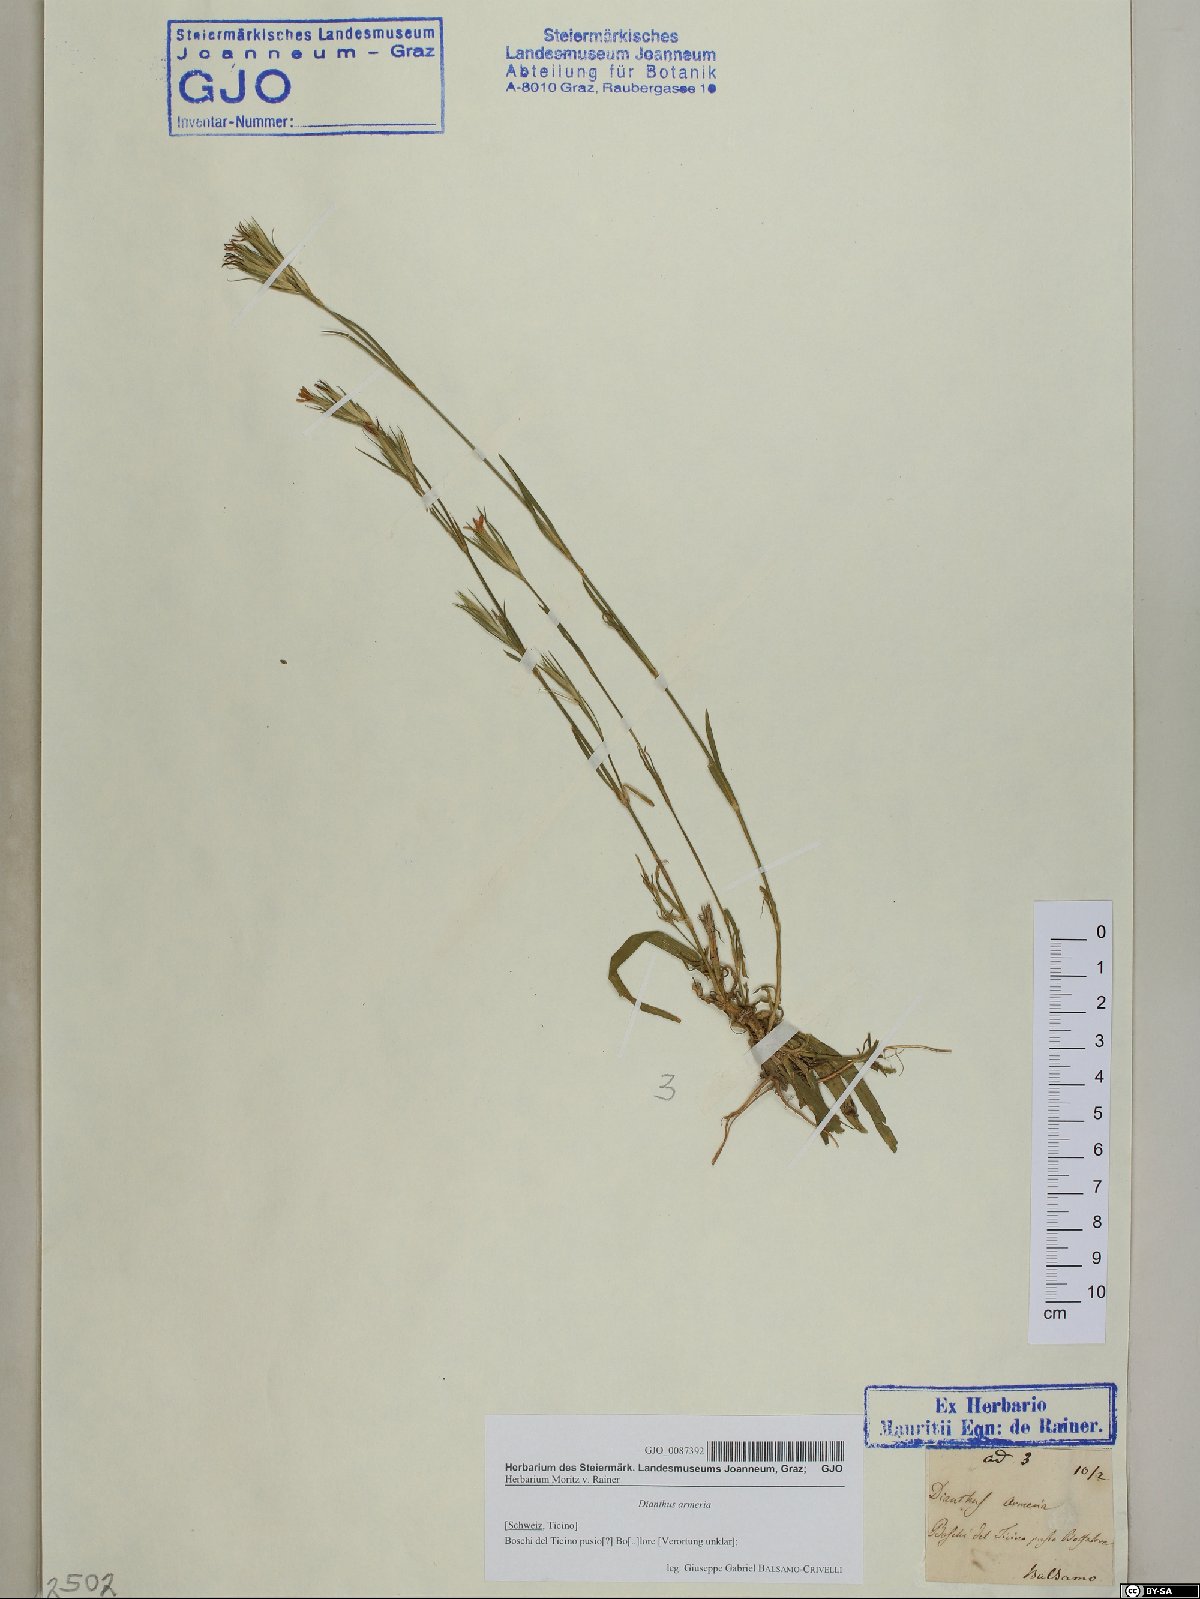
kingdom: Plantae
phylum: Tracheophyta
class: Magnoliopsida
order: Caryophyllales
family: Caryophyllaceae
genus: Dianthus
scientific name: Dianthus armeria
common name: Deptford pink
